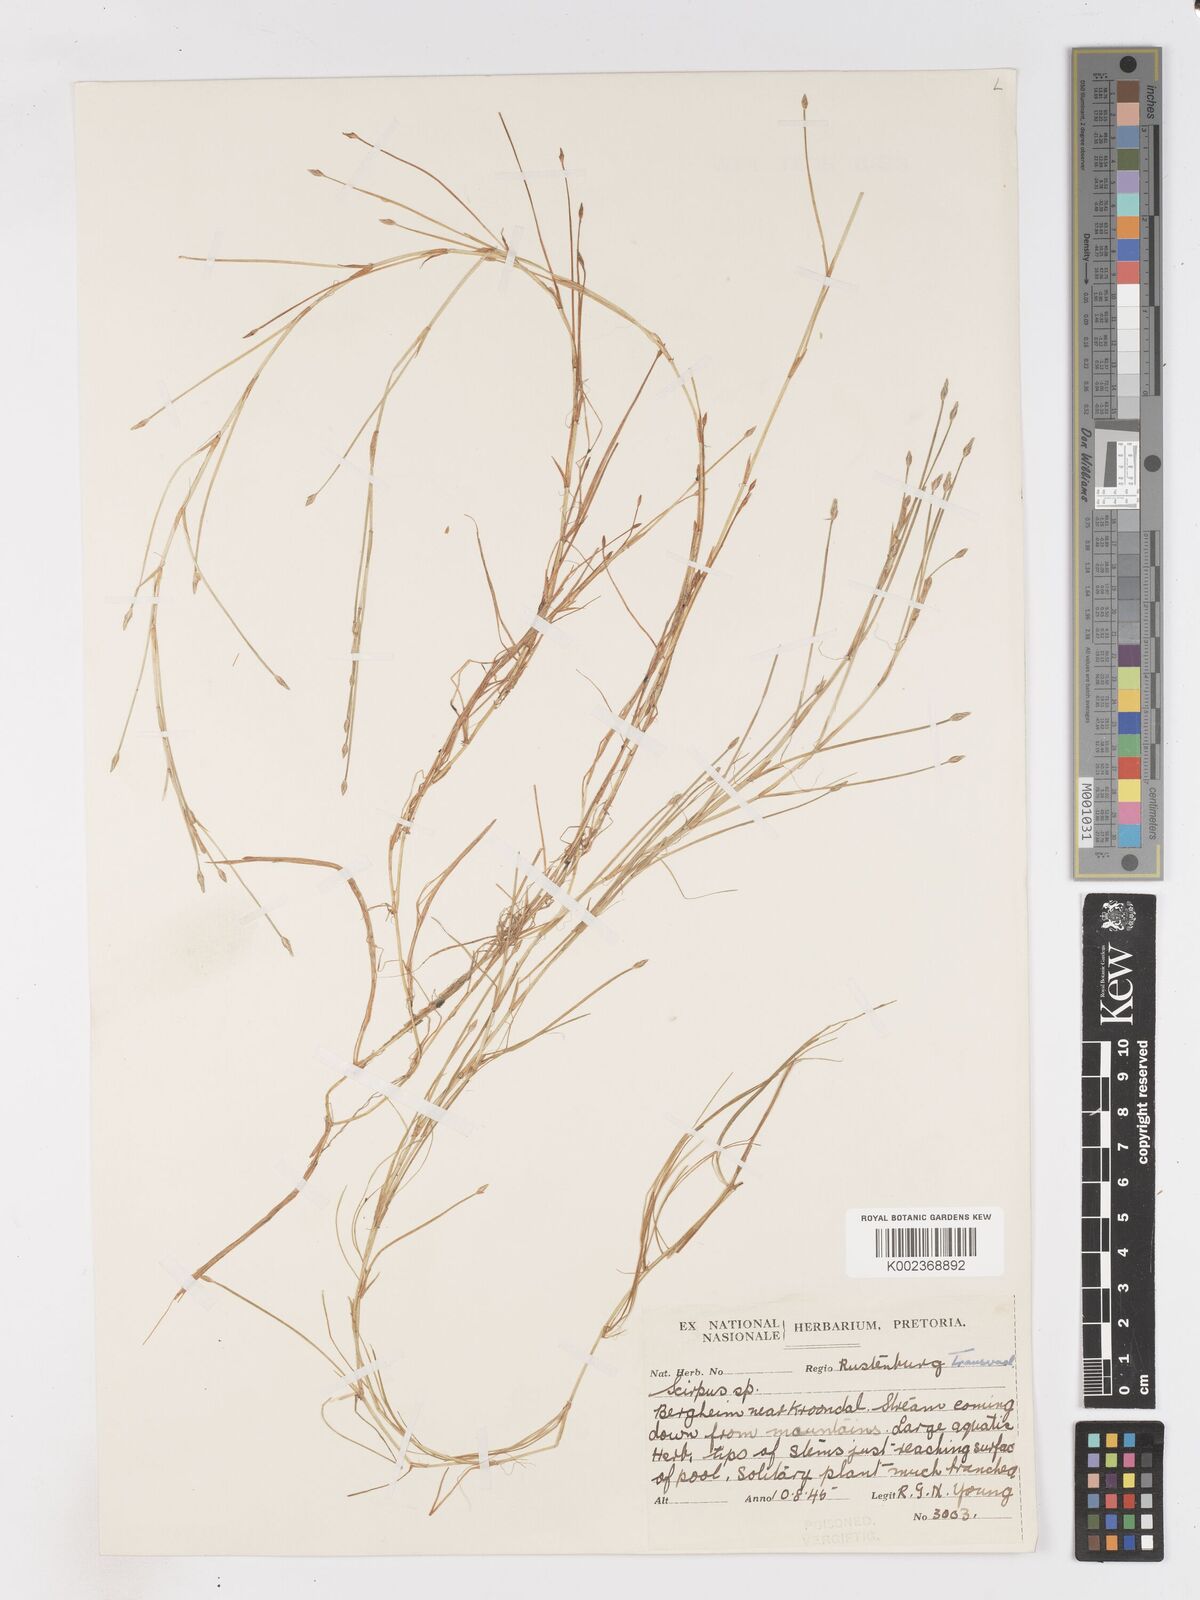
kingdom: Plantae
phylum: Tracheophyta
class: Liliopsida
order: Poales
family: Cyperaceae
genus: Isolepis
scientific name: Isolepis fluitans
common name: Floating club-rush
